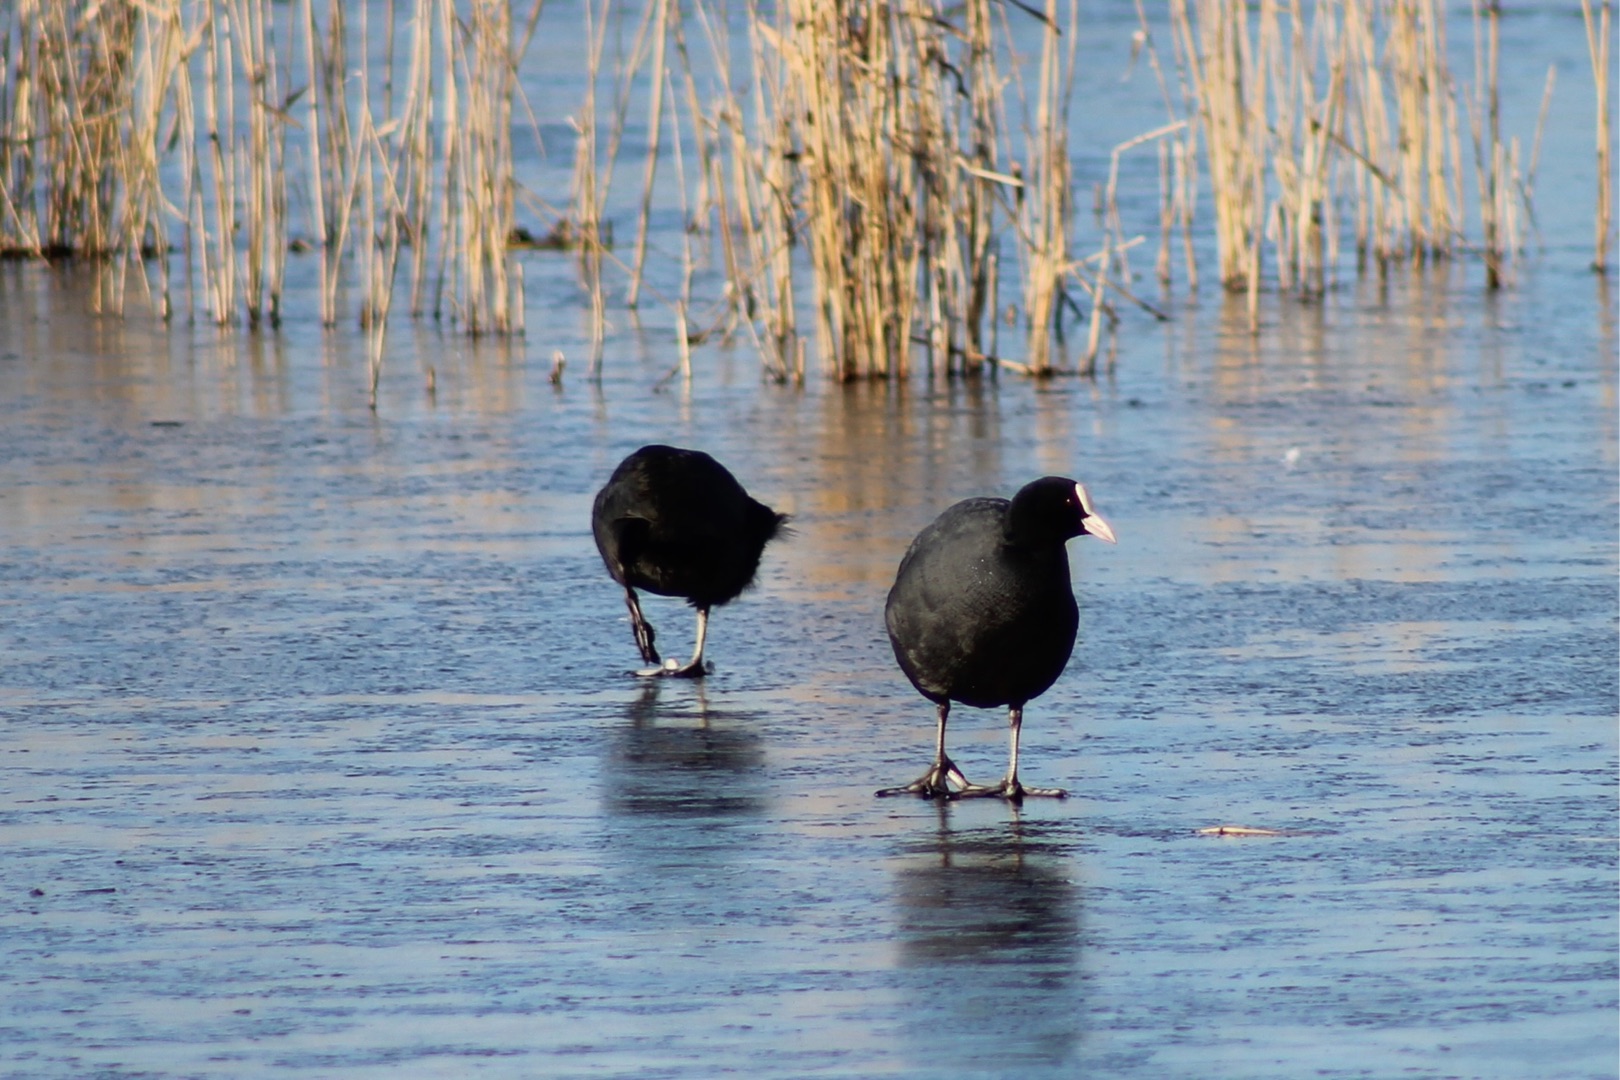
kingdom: Animalia
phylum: Chordata
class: Aves
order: Gruiformes
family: Rallidae
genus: Fulica
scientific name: Fulica atra
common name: Blishøne
